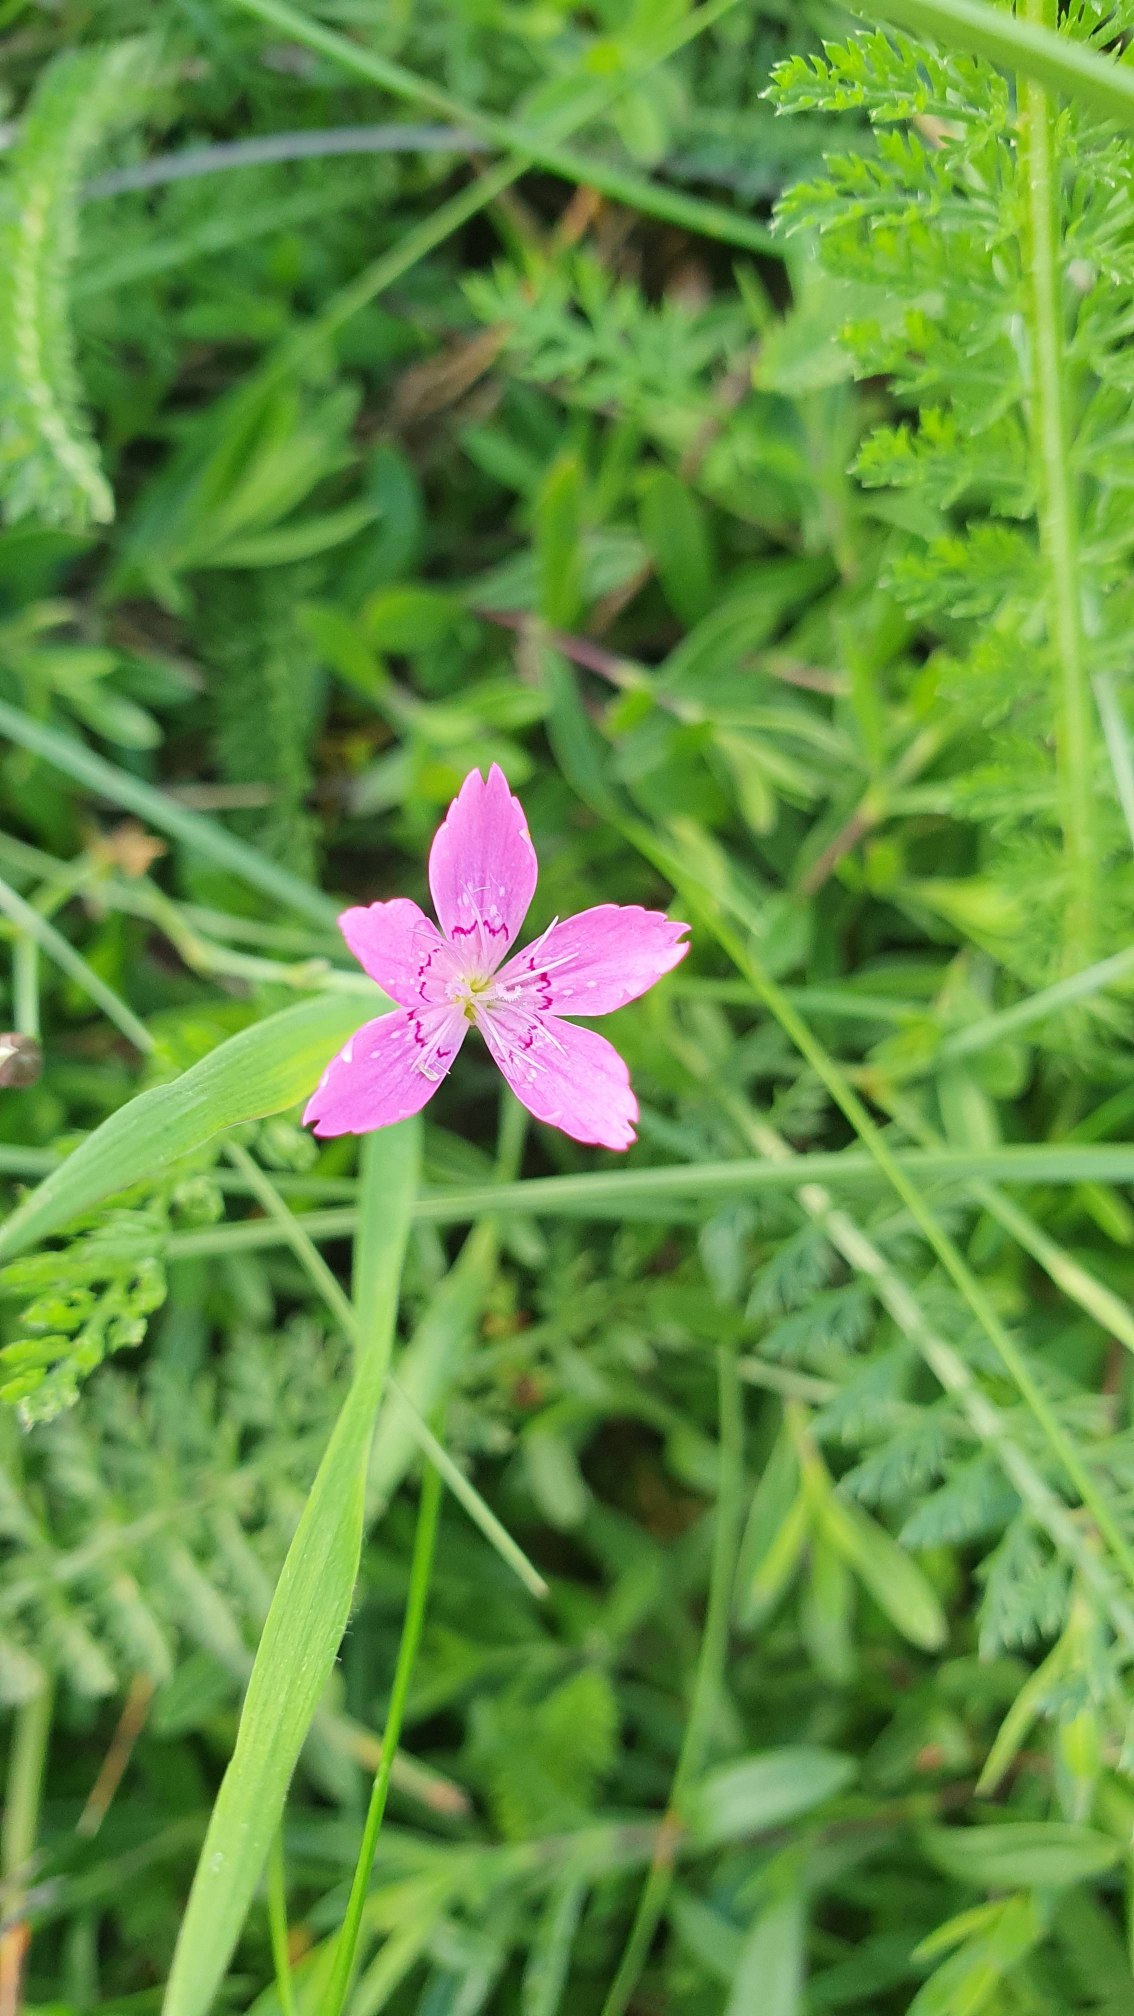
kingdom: Plantae
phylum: Tracheophyta
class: Magnoliopsida
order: Caryophyllales
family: Caryophyllaceae
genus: Dianthus
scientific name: Dianthus deltoides
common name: Bakke-nellike
